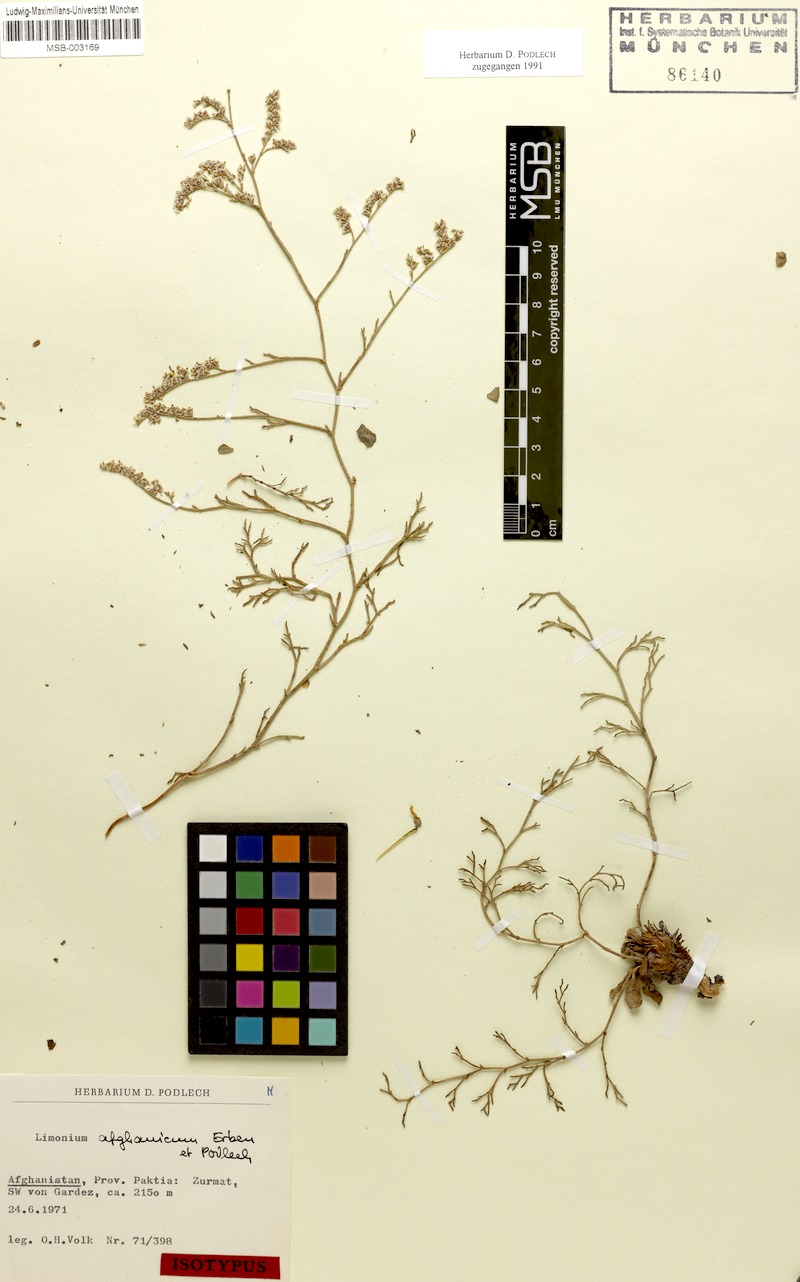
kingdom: Plantae
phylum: Tracheophyta
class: Magnoliopsida
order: Caryophyllales
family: Plumbaginaceae
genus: Limonium
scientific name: Limonium afghanicum
